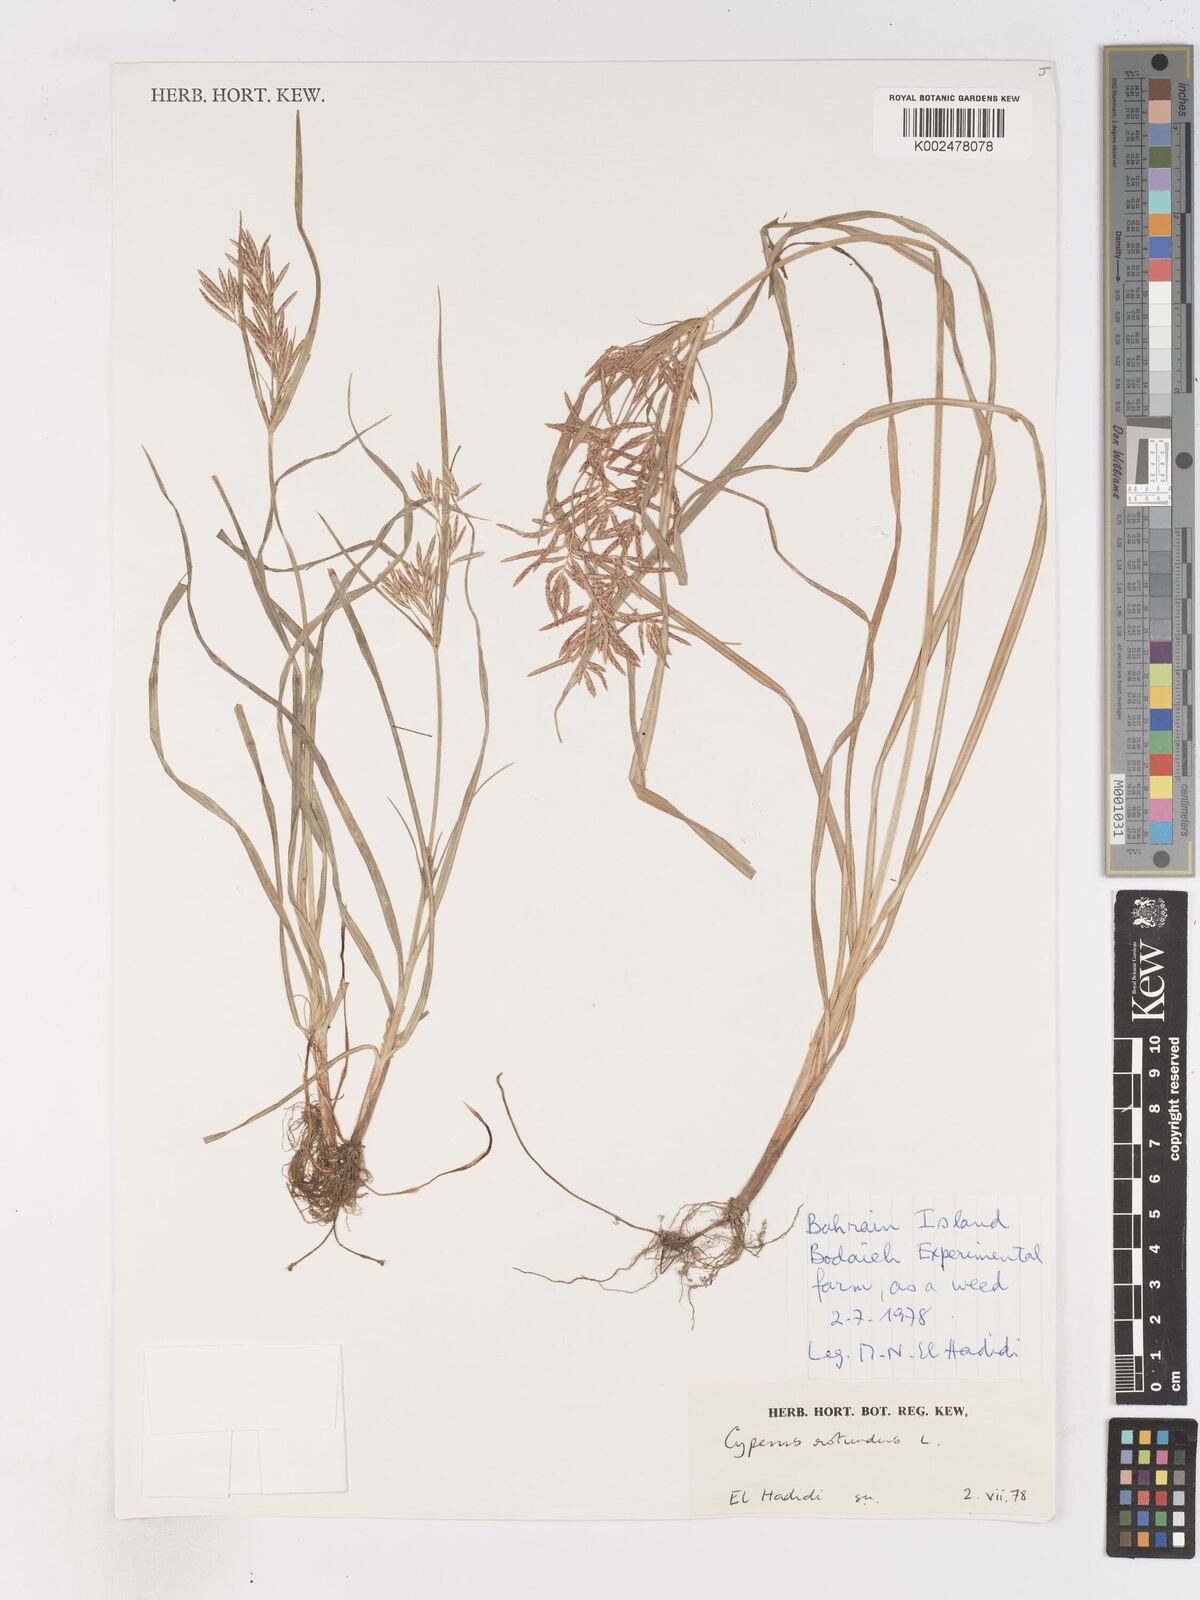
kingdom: Plantae
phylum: Tracheophyta
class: Liliopsida
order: Poales
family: Cyperaceae
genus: Cyperus
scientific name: Cyperus rotundus
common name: Nutgrass
